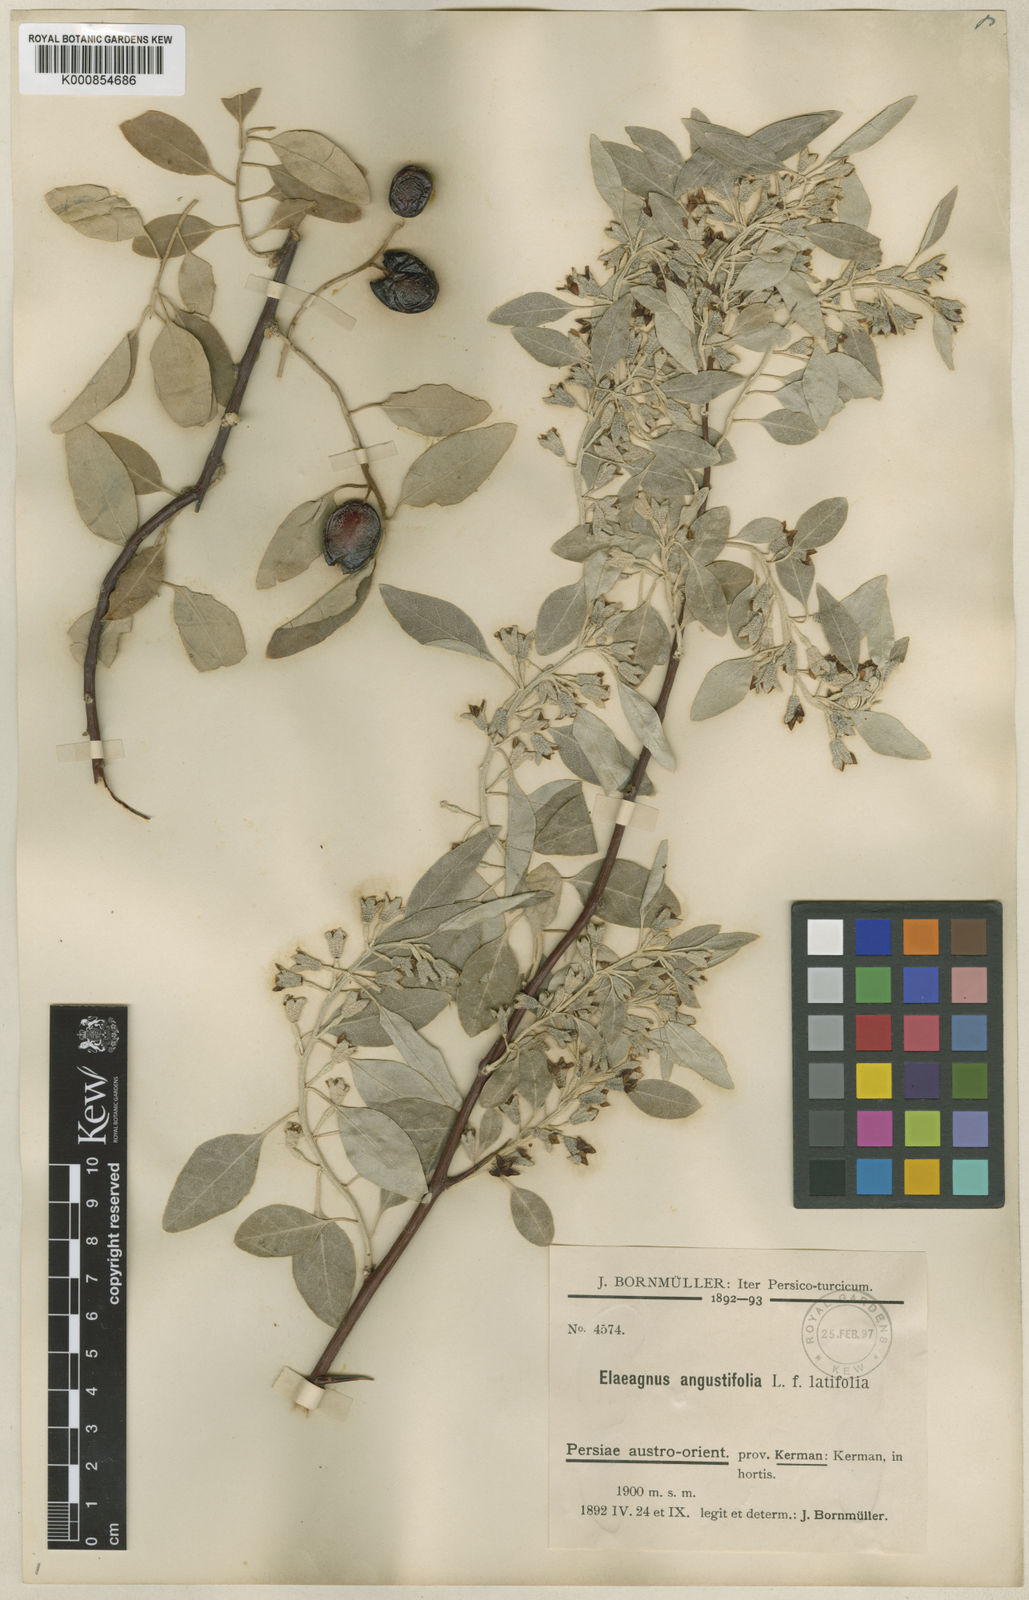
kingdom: Plantae
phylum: Tracheophyta
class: Magnoliopsida
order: Rosales
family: Elaeagnaceae
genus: Elaeagnus
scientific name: Elaeagnus angustifolia
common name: Russian olive
